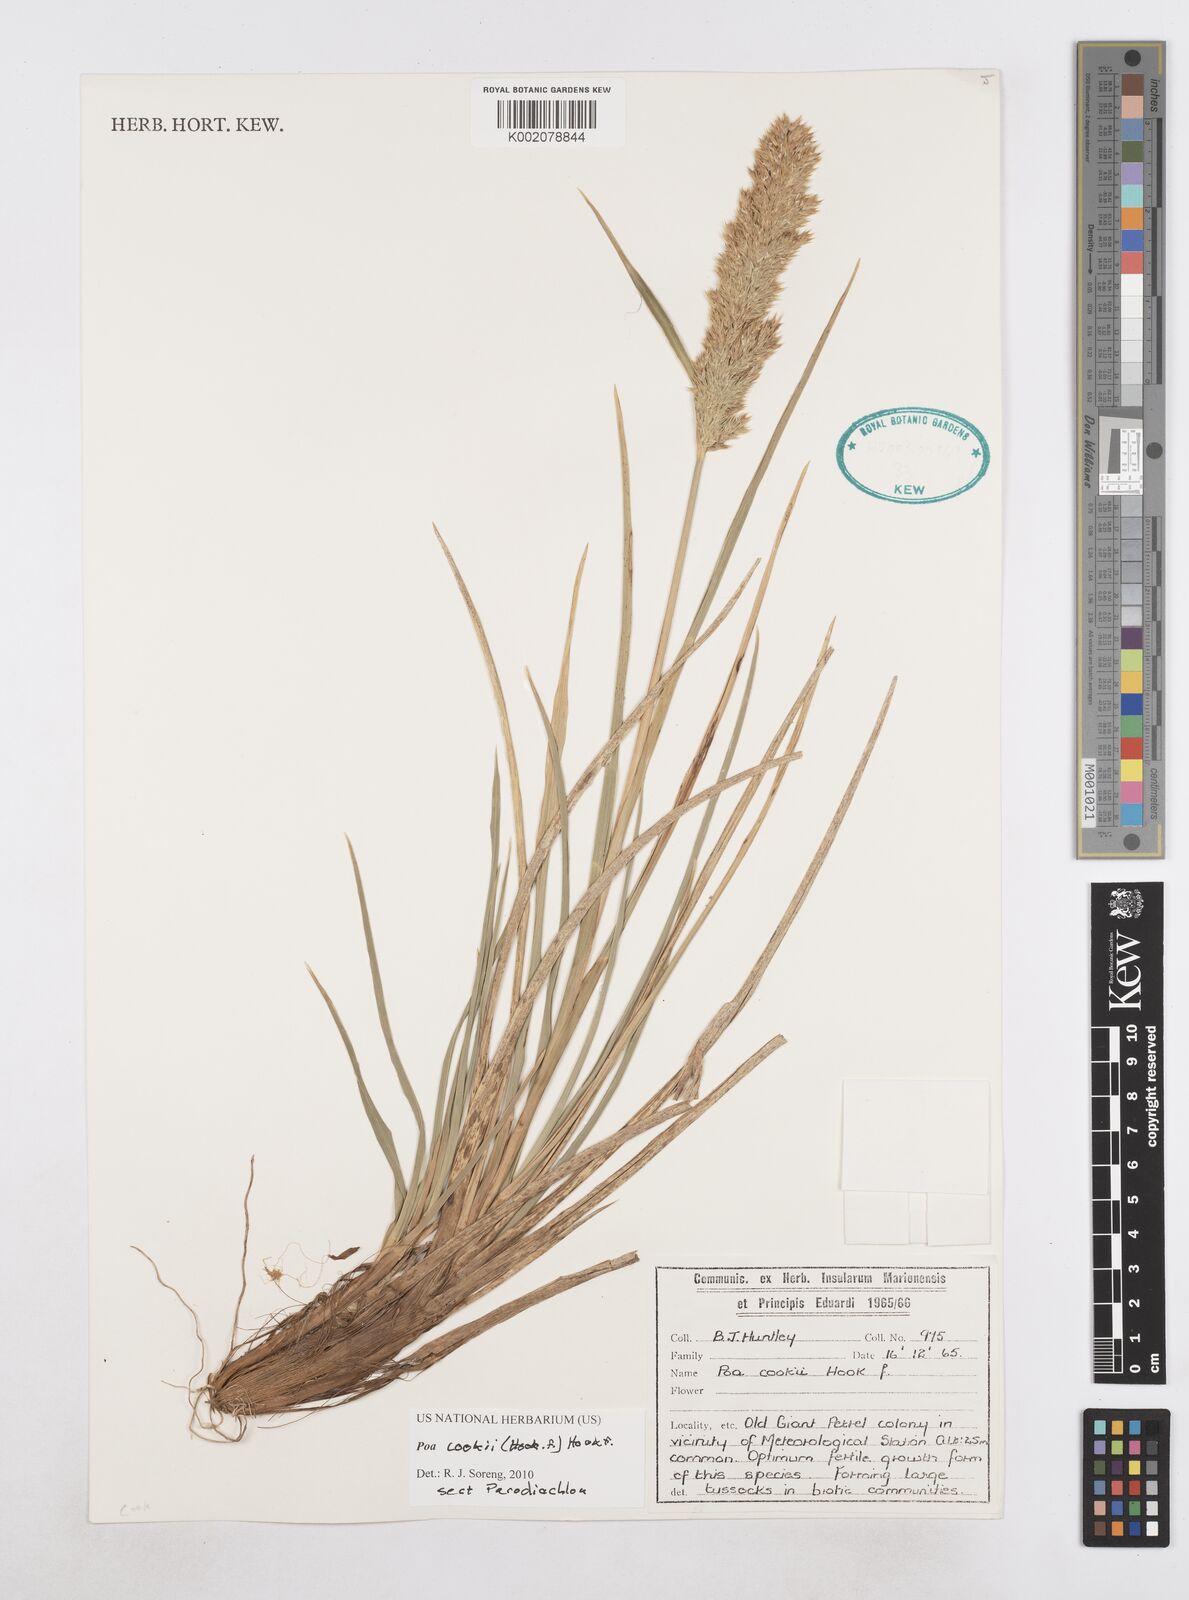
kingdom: Plantae
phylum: Tracheophyta
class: Liliopsida
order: Poales
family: Poaceae
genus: Poa
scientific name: Poa cookii
